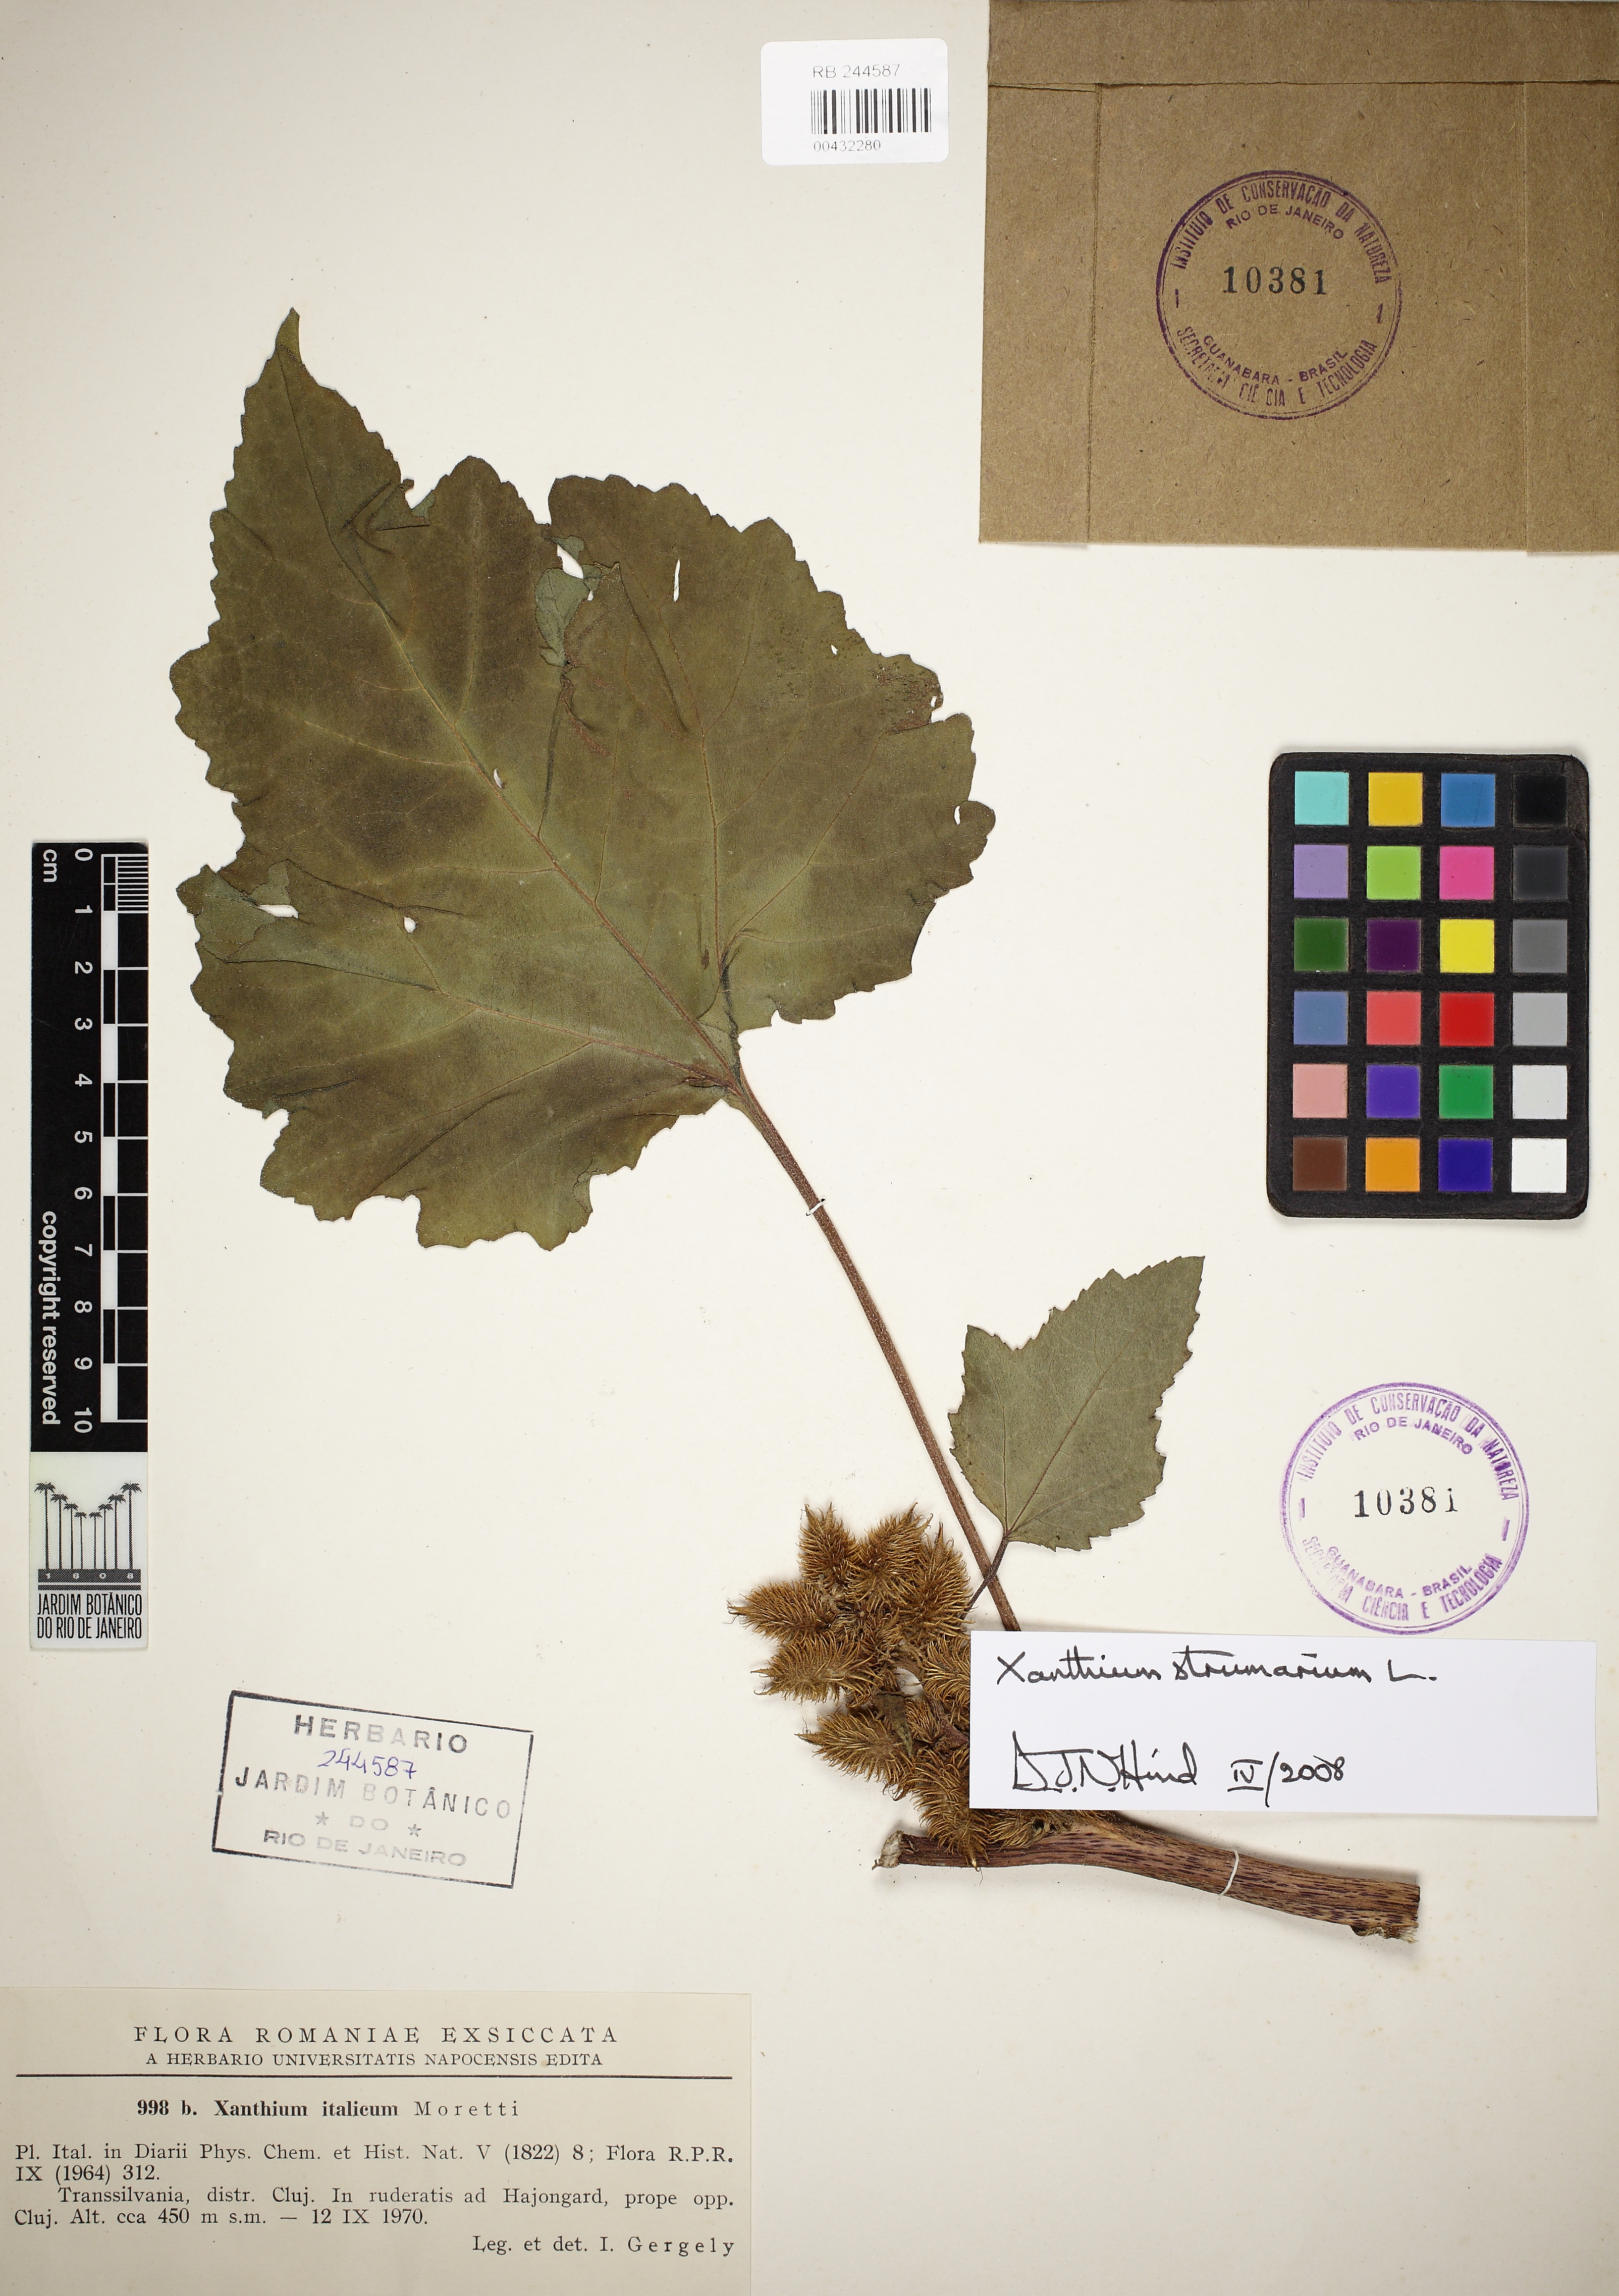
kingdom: Plantae
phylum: Tracheophyta
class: Magnoliopsida
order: Asterales
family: Asteraceae
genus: Xanthium
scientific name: Xanthium strumarium
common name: Rough cocklebur
